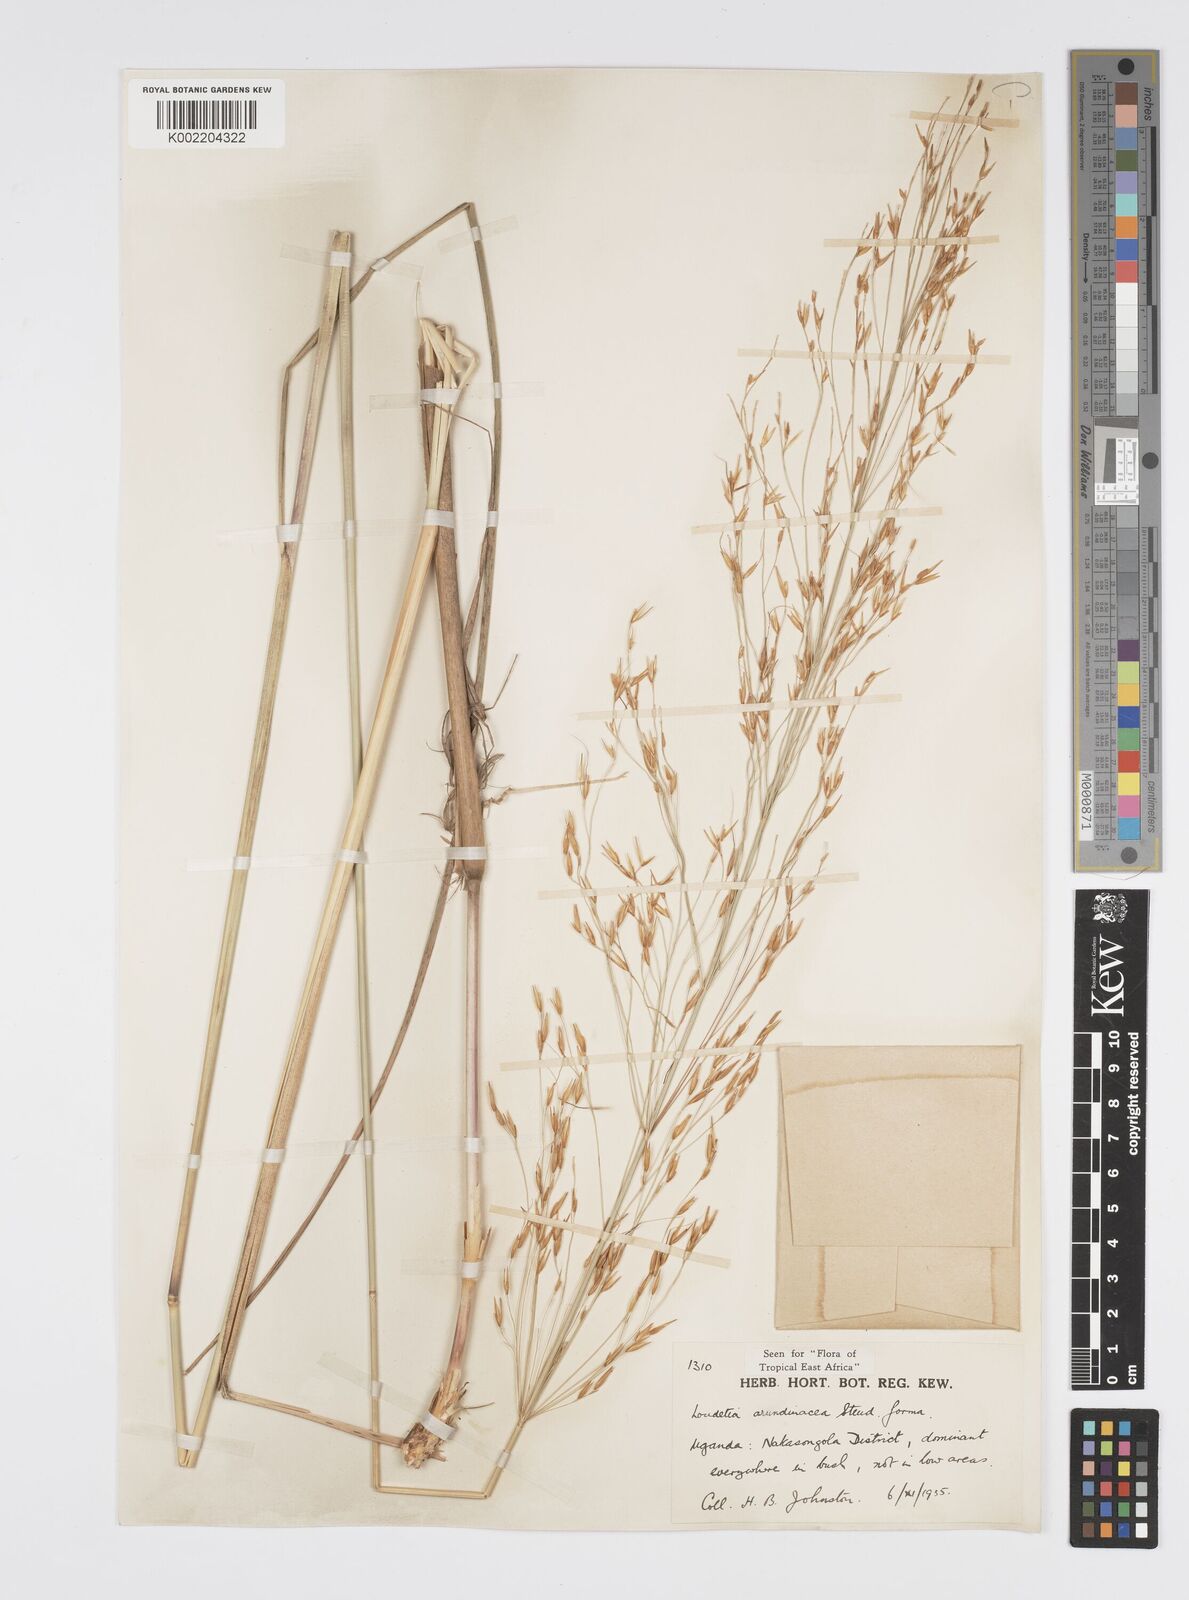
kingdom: Plantae
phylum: Tracheophyta
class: Liliopsida
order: Poales
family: Poaceae
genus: Loudetia
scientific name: Loudetia arundinacea
